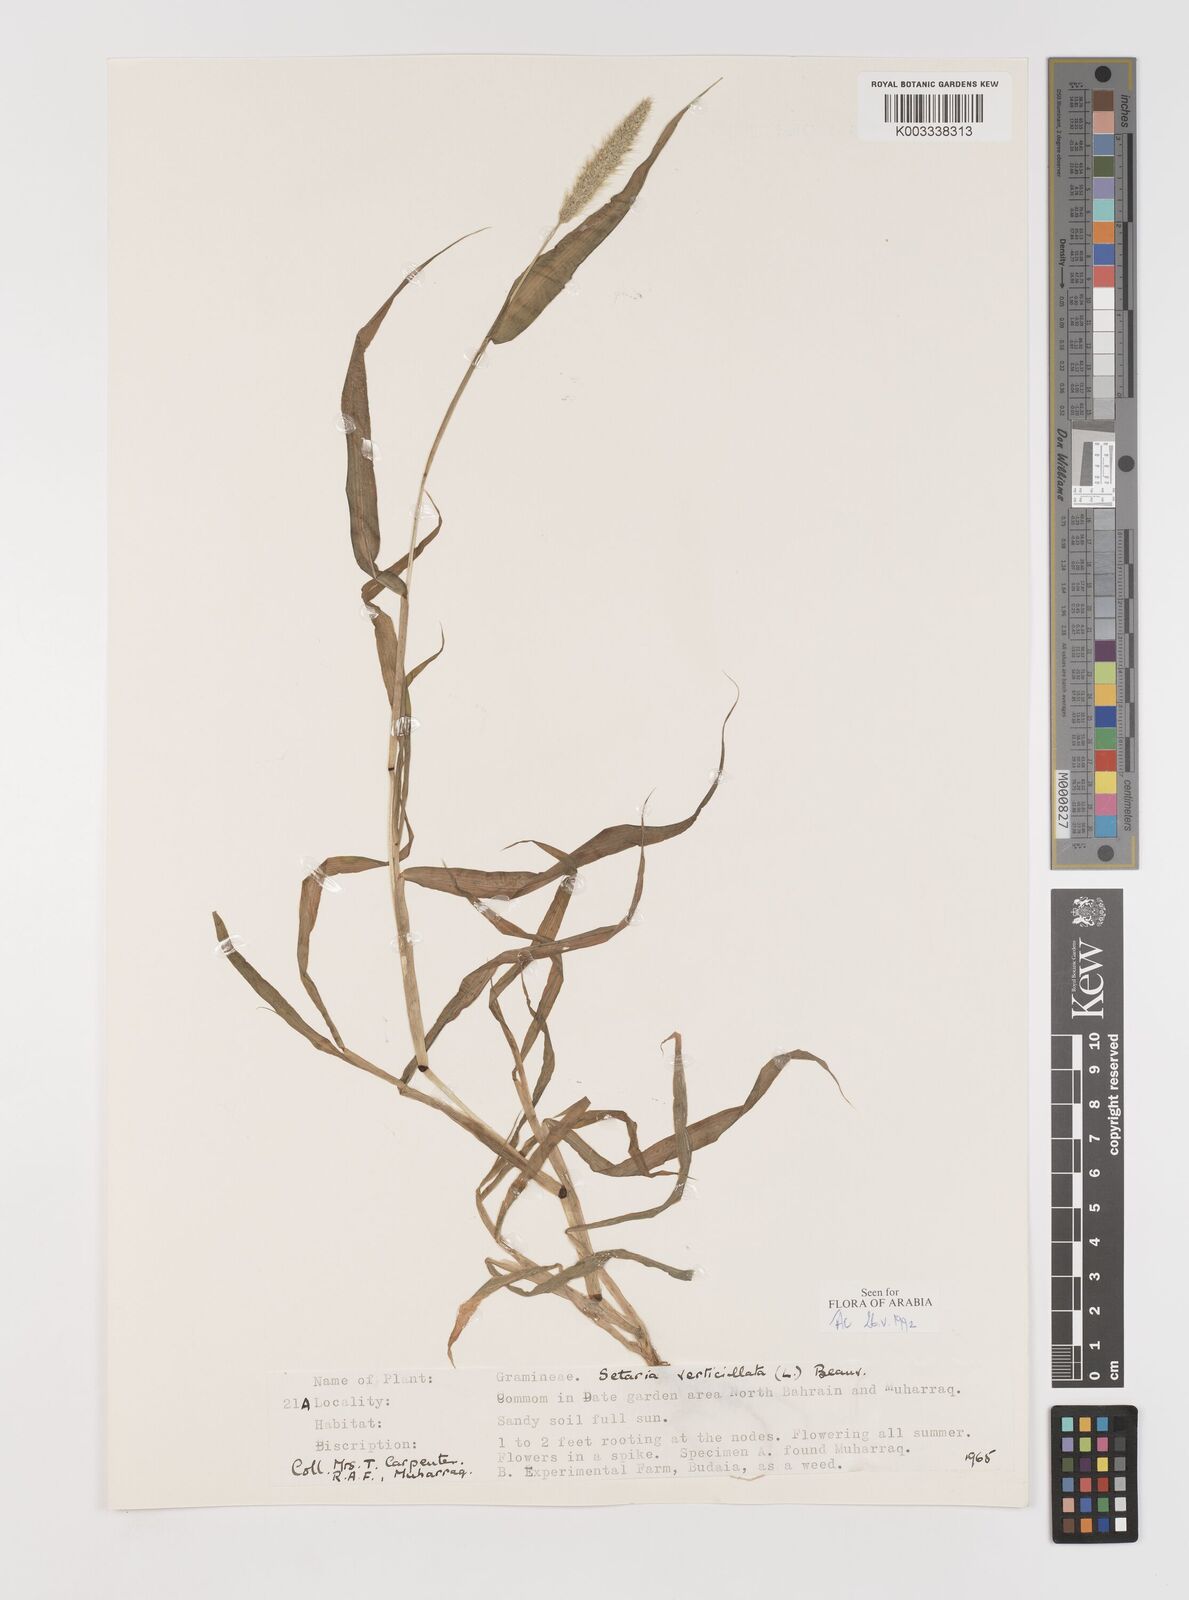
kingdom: Plantae
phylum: Tracheophyta
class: Liliopsida
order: Poales
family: Poaceae
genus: Setaria
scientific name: Setaria verticillata
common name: Hooked bristlegrass
